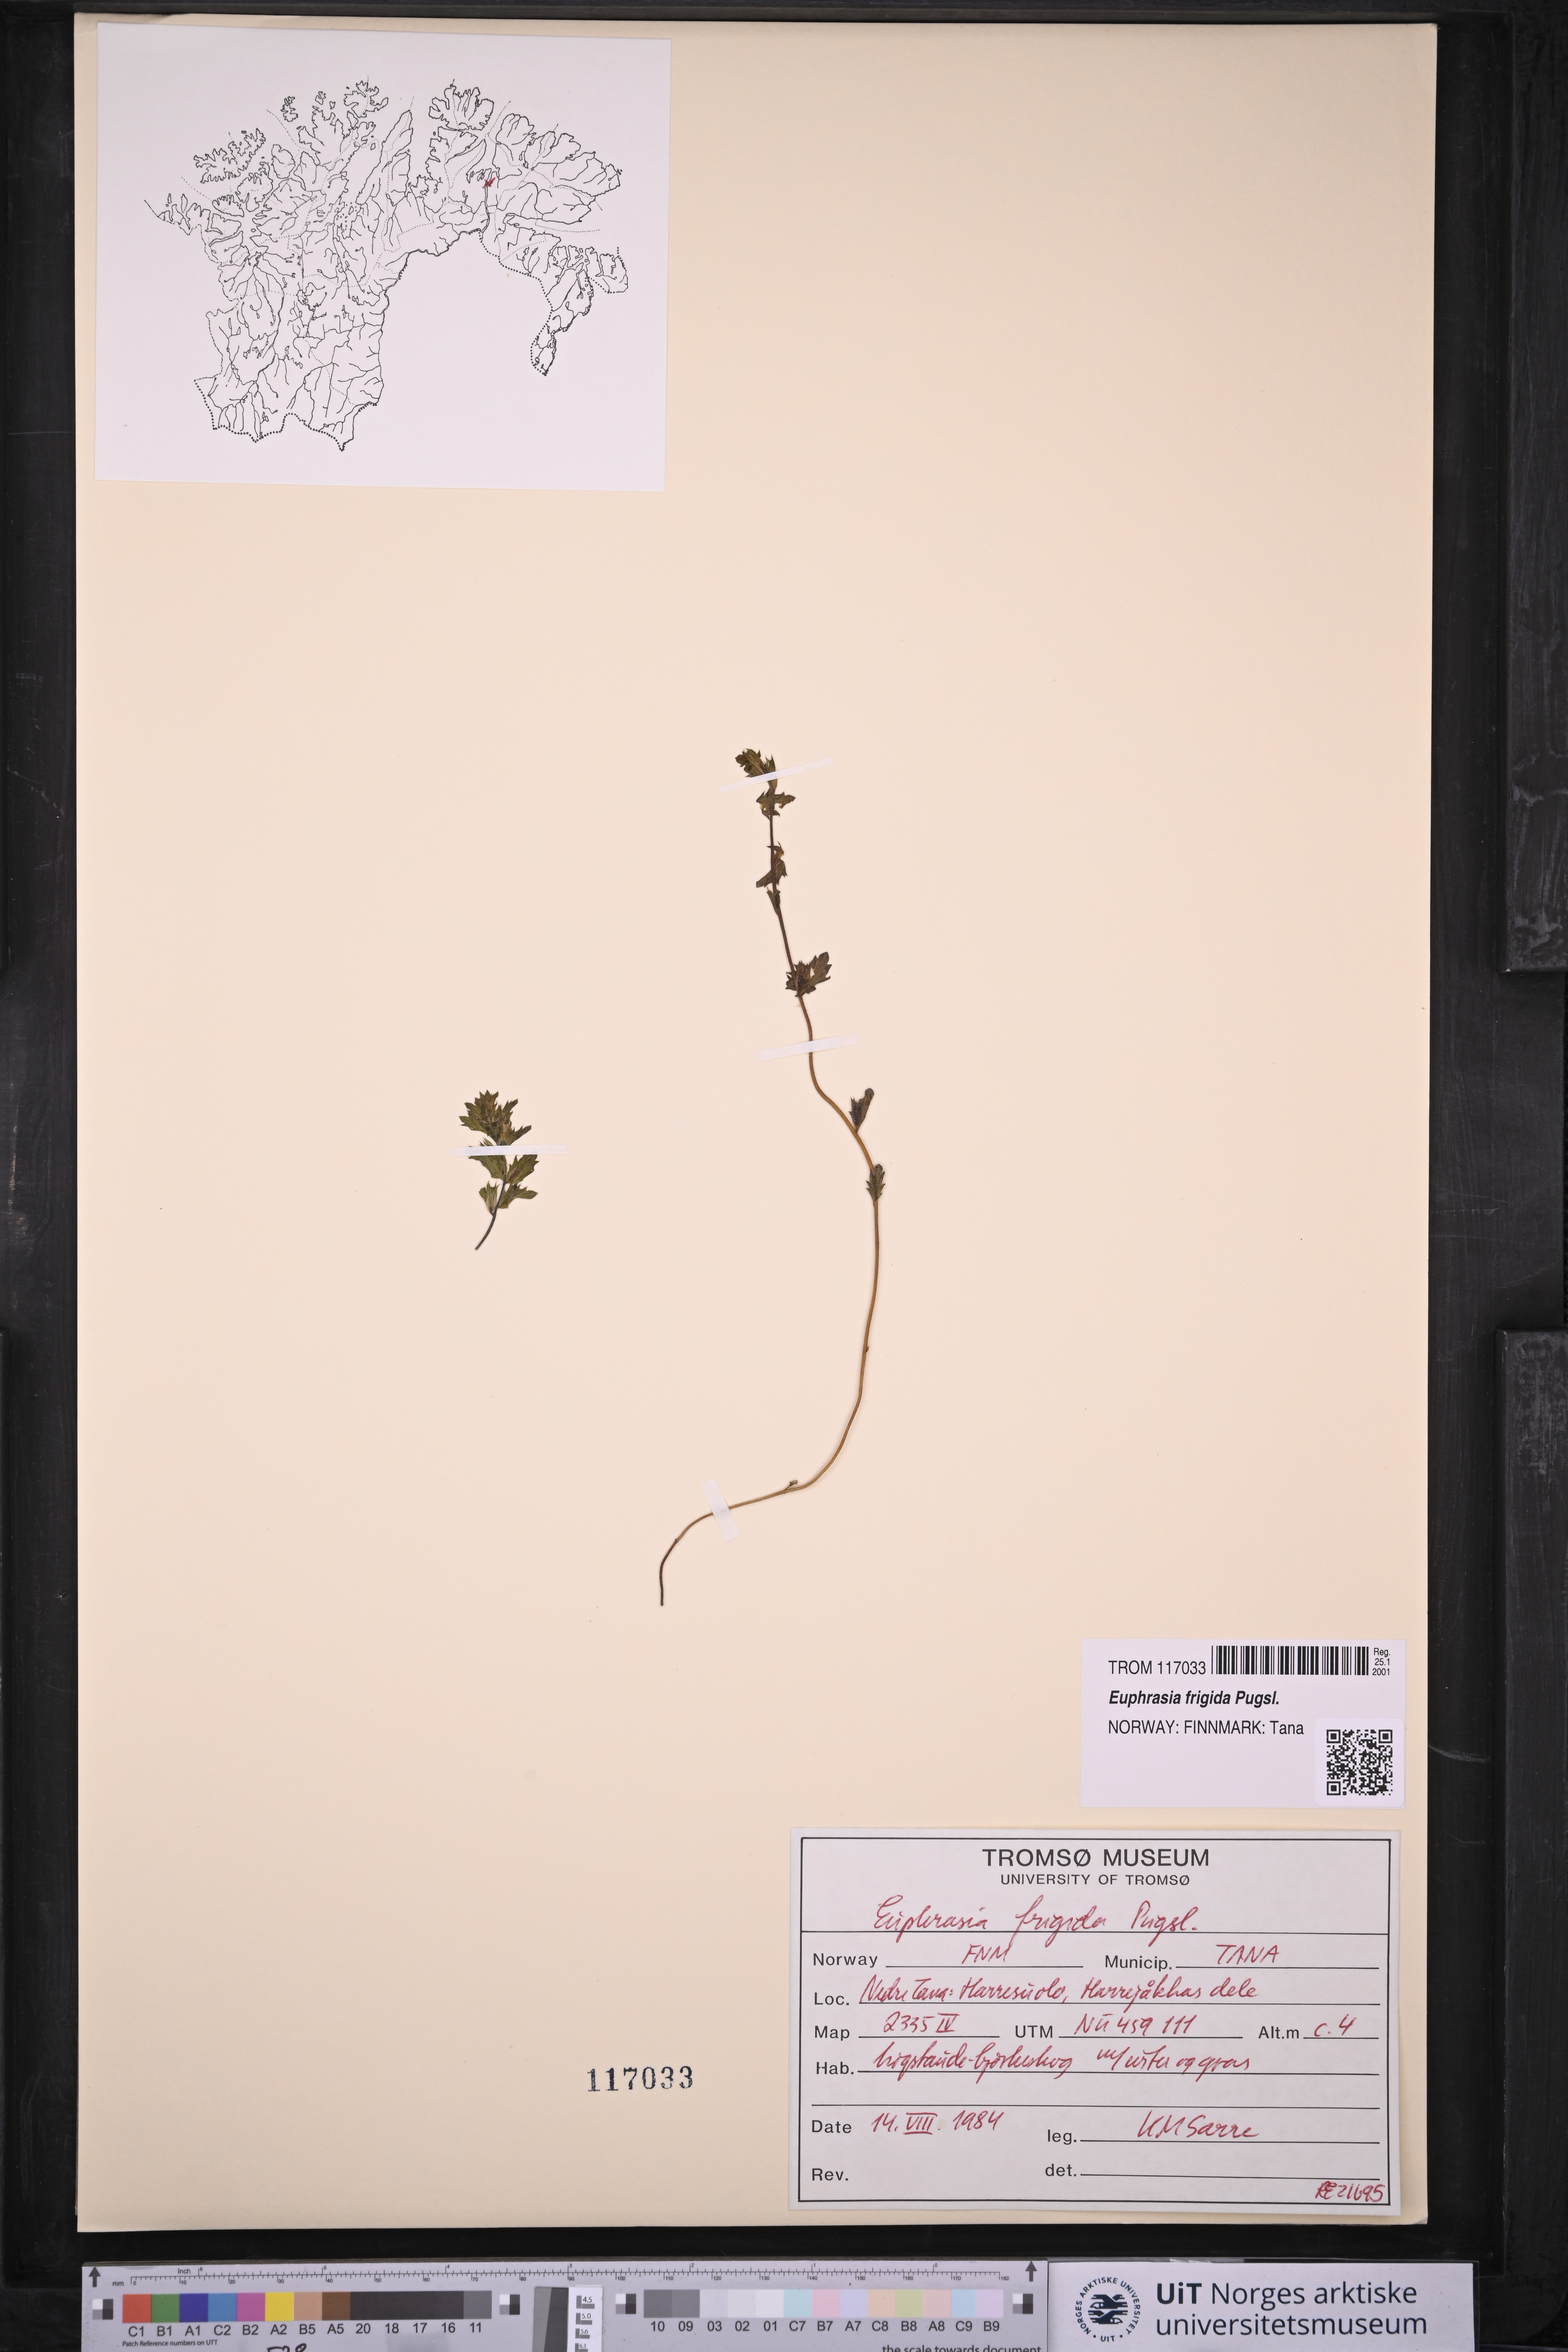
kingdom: Plantae
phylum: Tracheophyta
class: Magnoliopsida
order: Lamiales
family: Orobanchaceae
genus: Euphrasia
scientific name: Euphrasia frigida
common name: An eyebright
